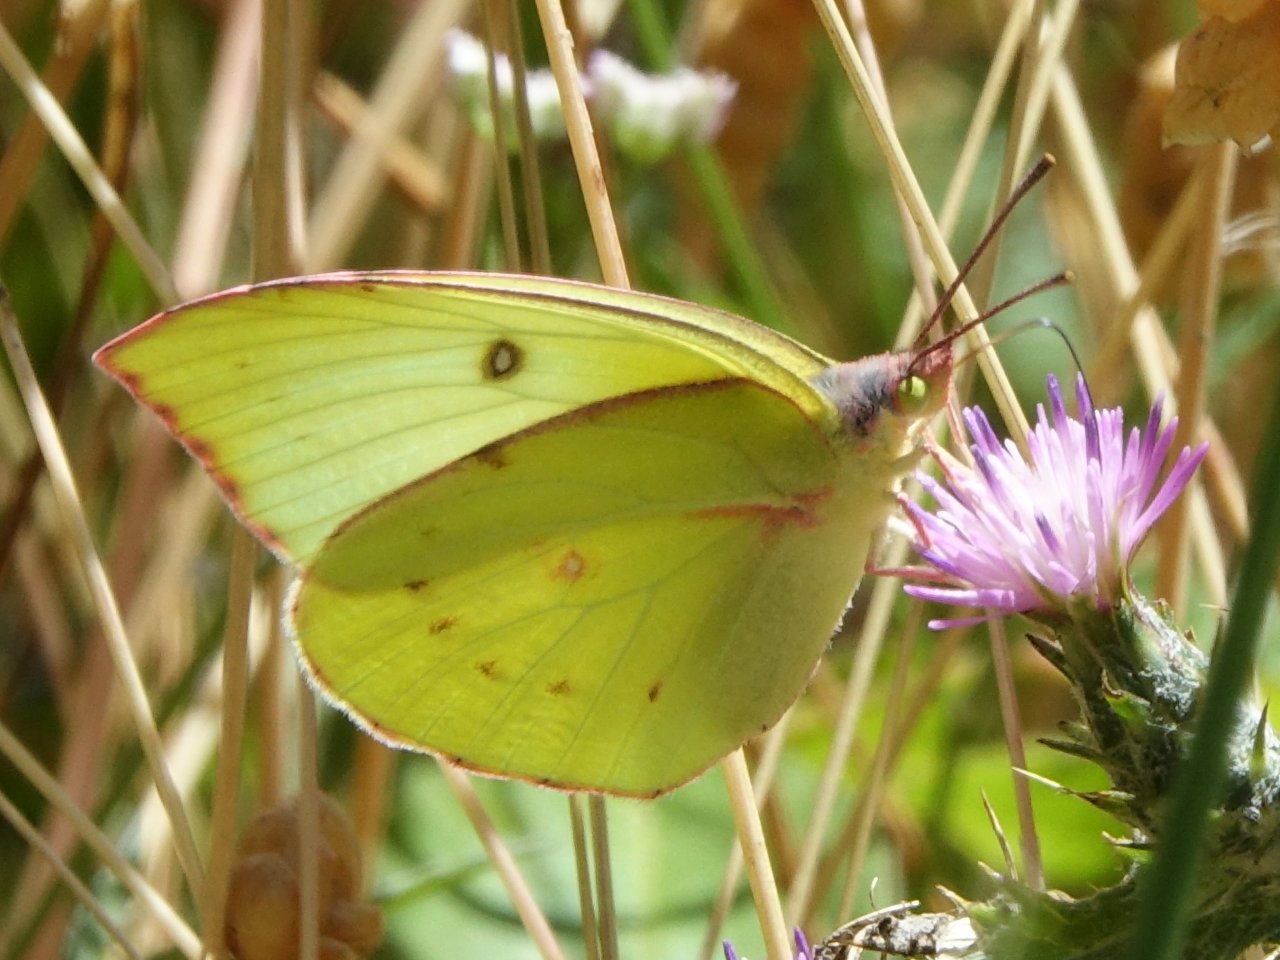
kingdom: Animalia
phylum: Arthropoda
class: Insecta
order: Lepidoptera
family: Pieridae
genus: Zerene
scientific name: Zerene eurydice
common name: California Dogface
